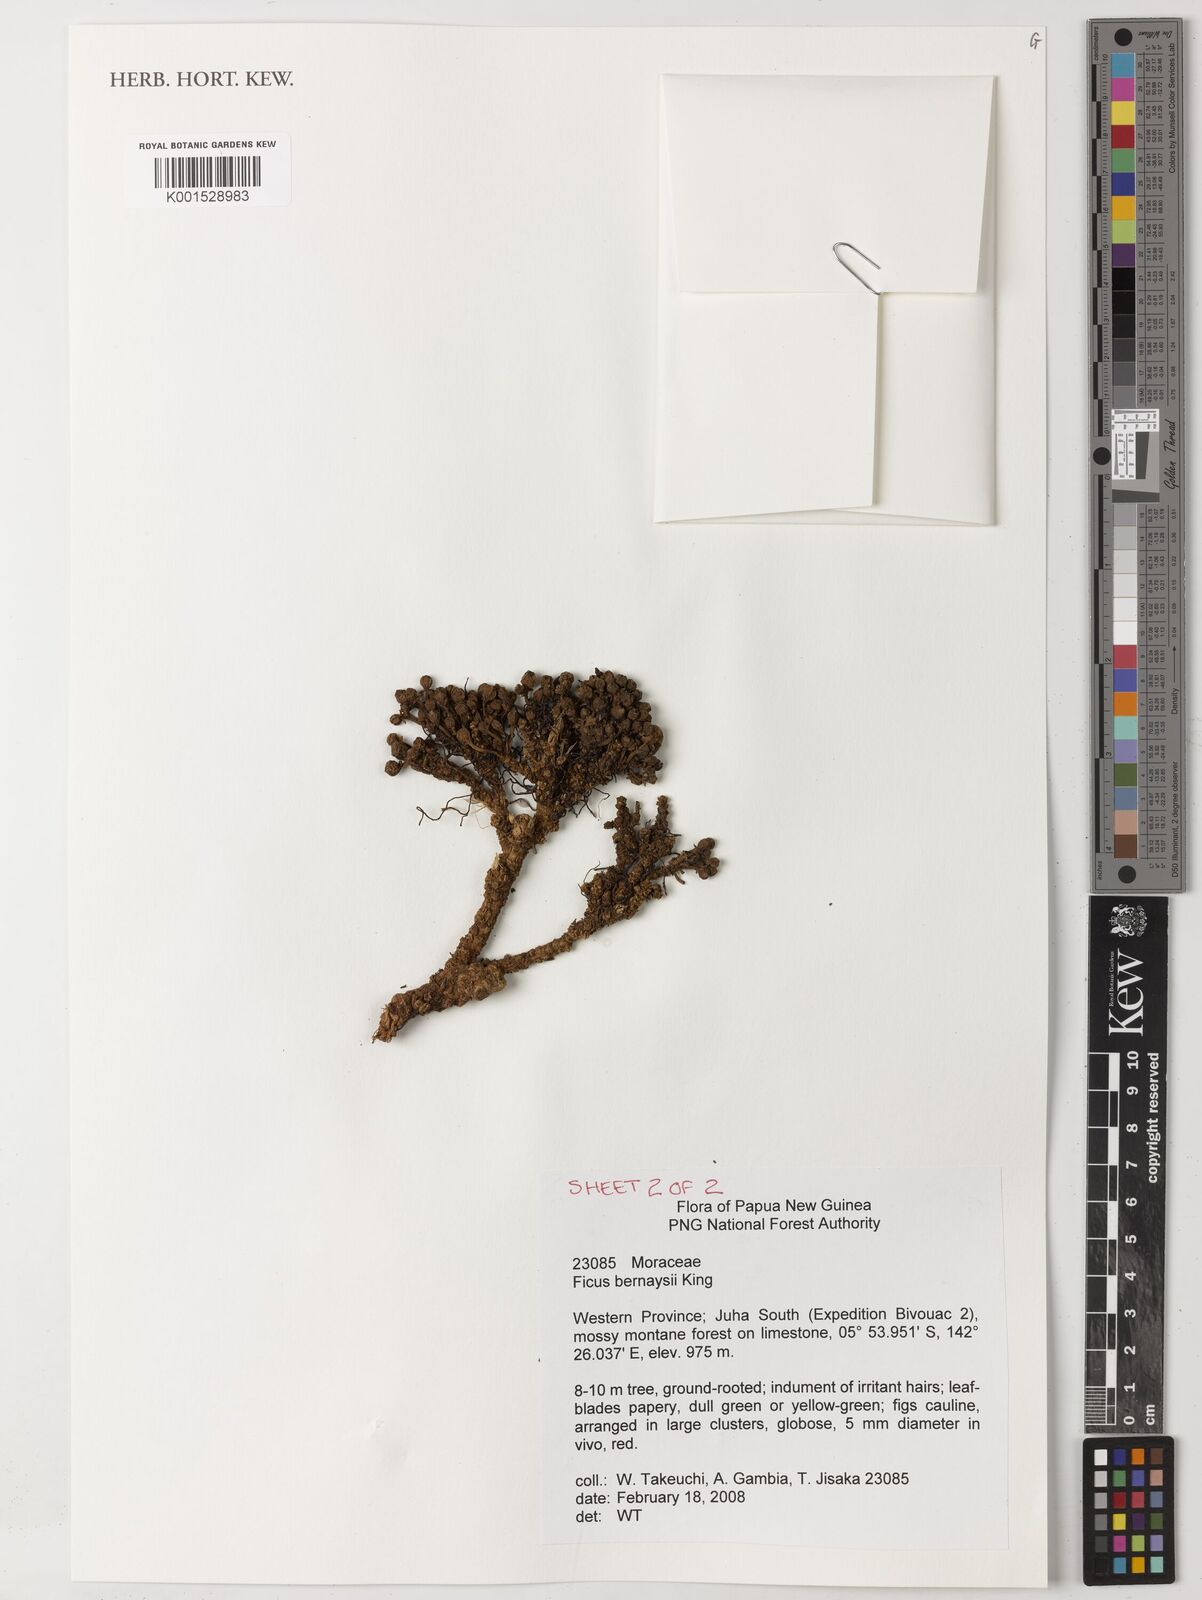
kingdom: Plantae
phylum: Tracheophyta
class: Magnoliopsida
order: Rosales
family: Moraceae
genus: Ficus
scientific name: Ficus bernaysii
